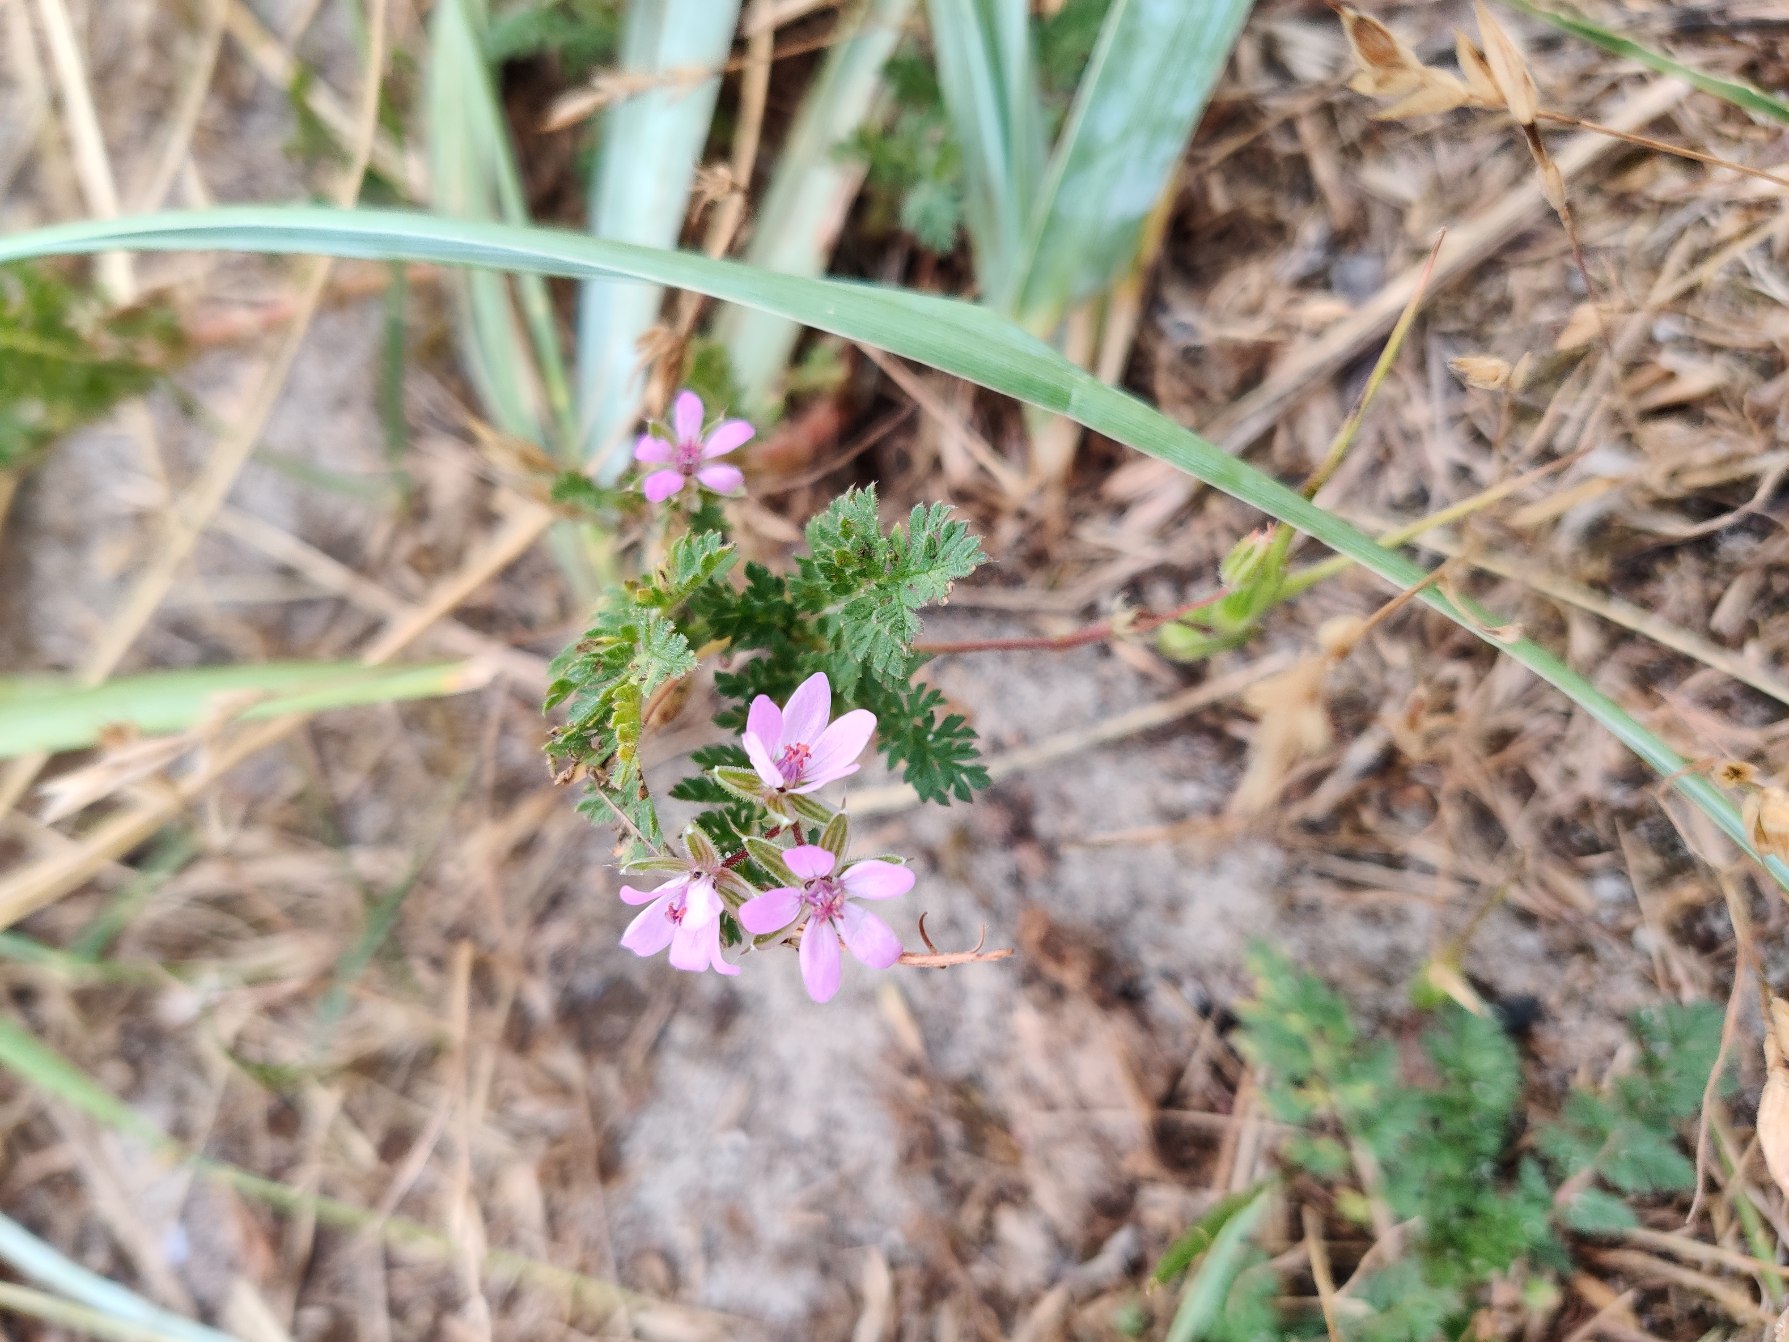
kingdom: Plantae
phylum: Tracheophyta
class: Magnoliopsida
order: Geraniales
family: Geraniaceae
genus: Erodium
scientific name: Erodium cicutarium
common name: Hejrenæb
